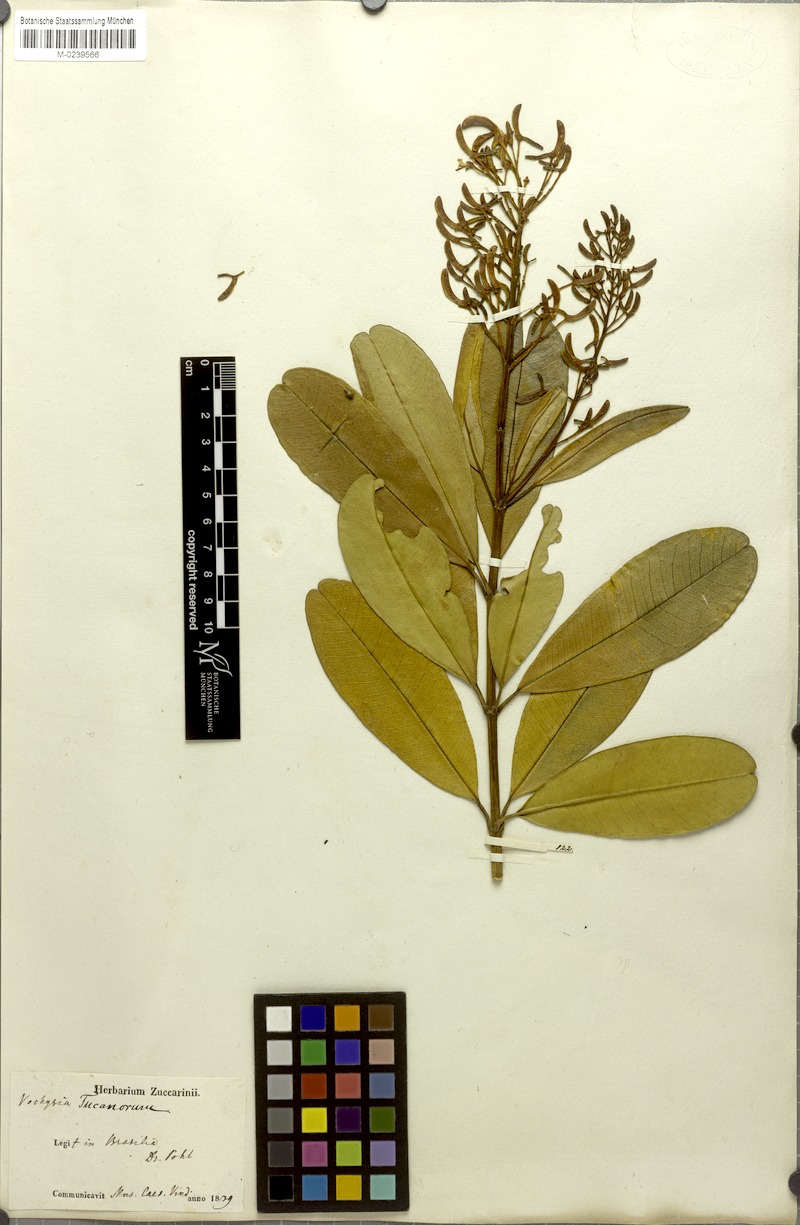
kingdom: Plantae
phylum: Tracheophyta
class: Magnoliopsida
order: Myrtales
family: Vochysiaceae
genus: Vochysia
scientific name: Vochysia tucanorum
